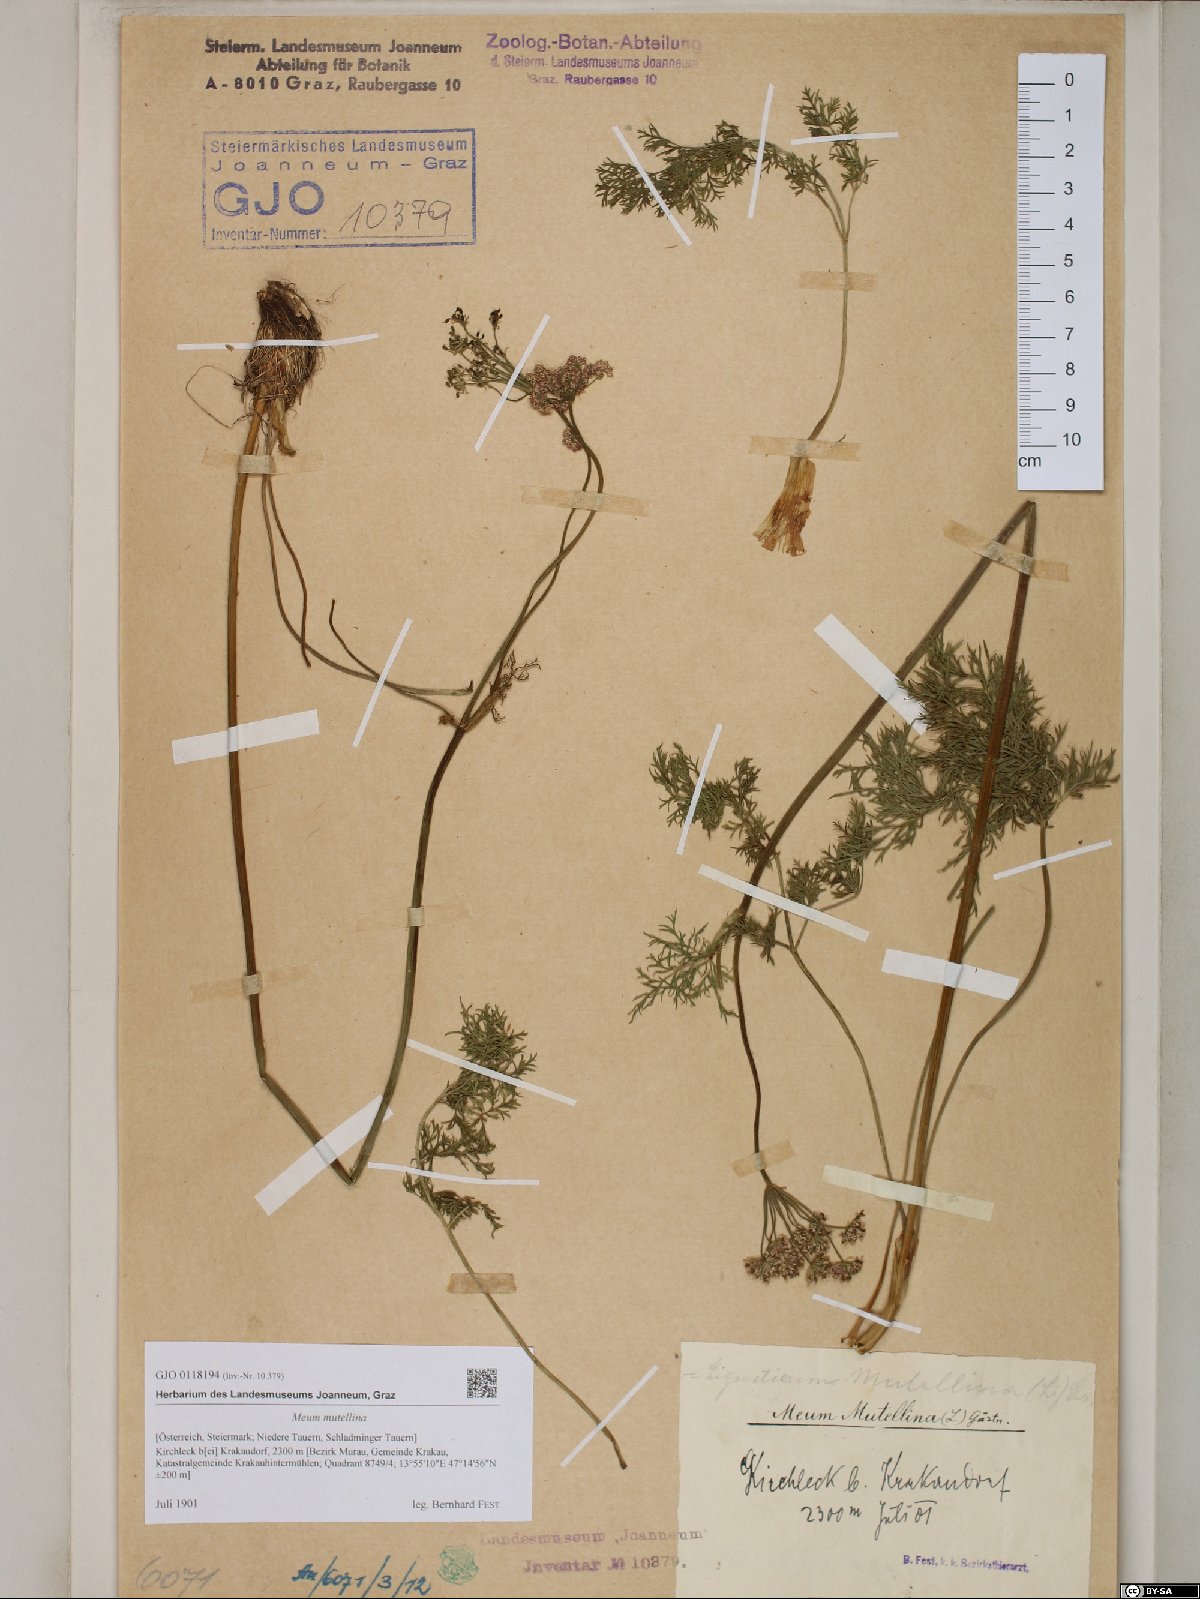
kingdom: Plantae
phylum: Tracheophyta
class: Magnoliopsida
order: Apiales
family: Apiaceae
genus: Mutellina
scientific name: Mutellina adonidifolia
